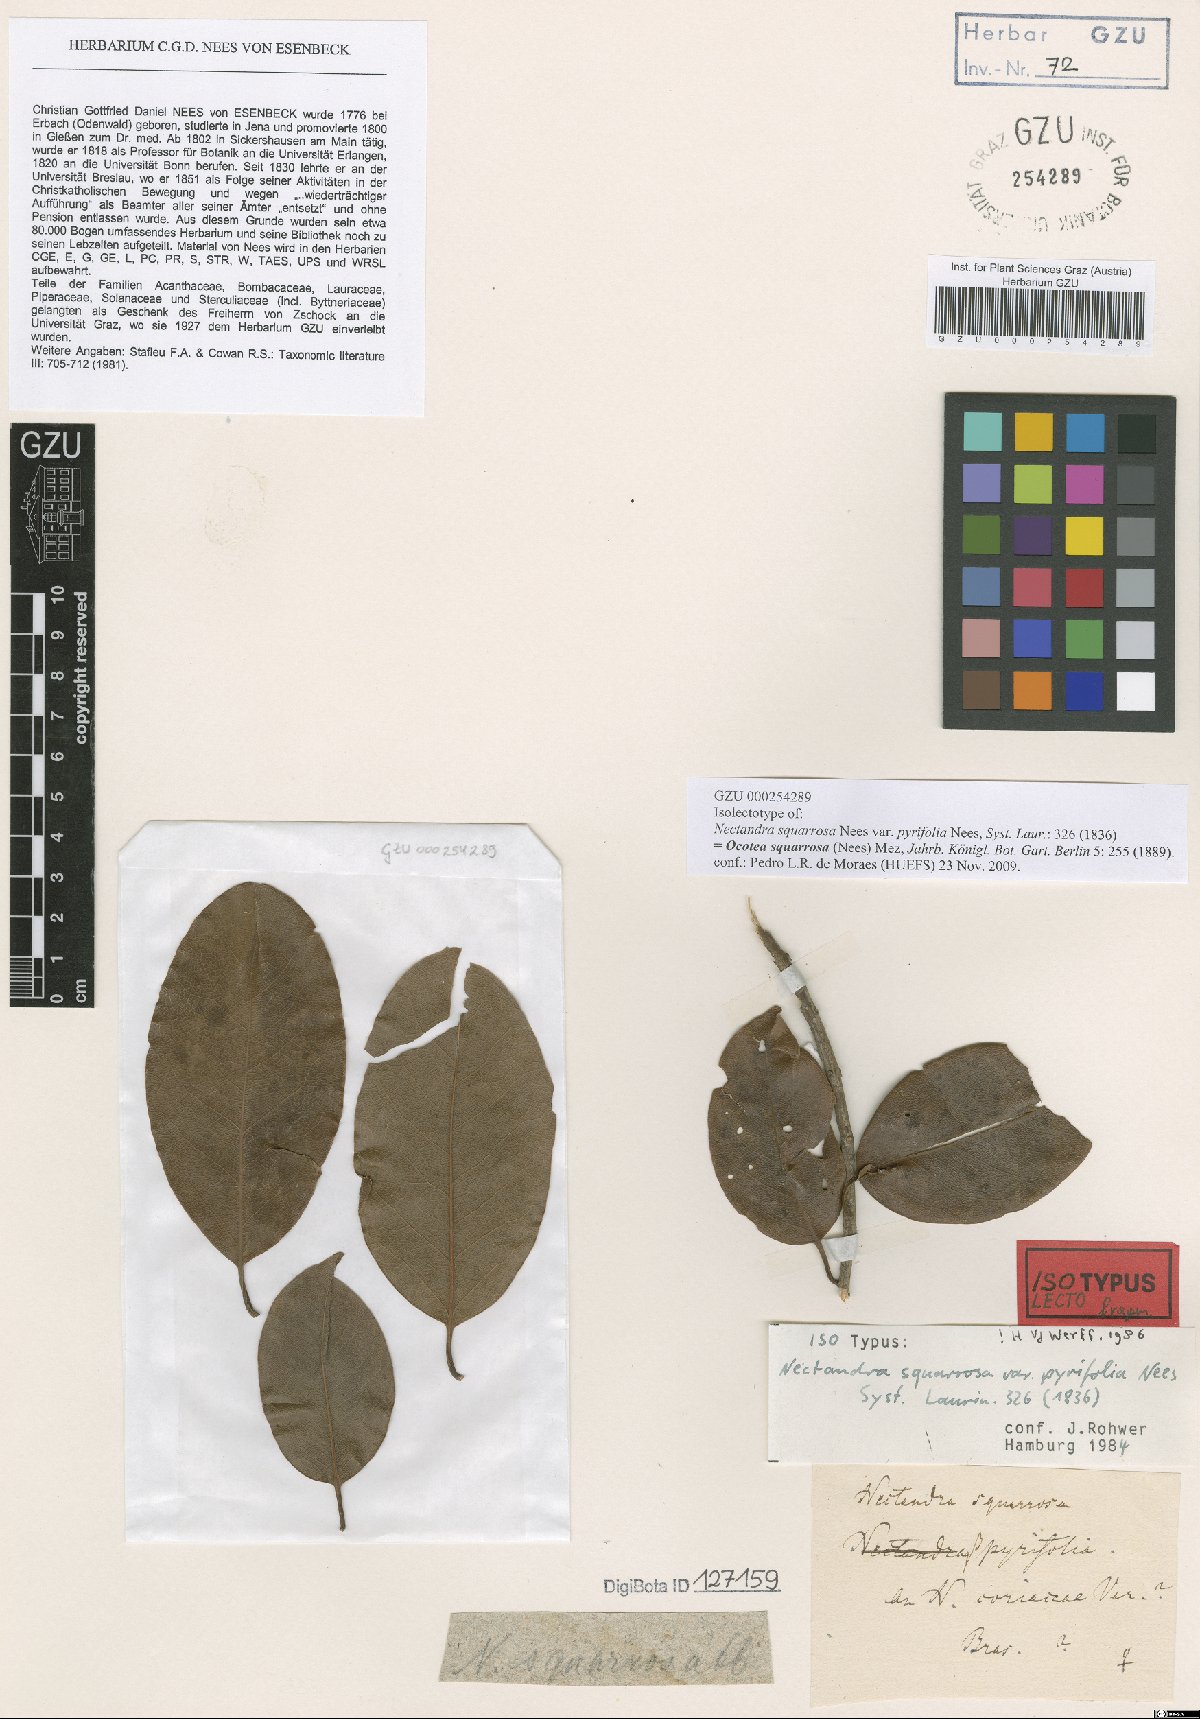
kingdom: Plantae
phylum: Tracheophyta
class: Magnoliopsida
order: Laurales
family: Lauraceae
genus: Ocotea
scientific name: Ocotea squarrosa
